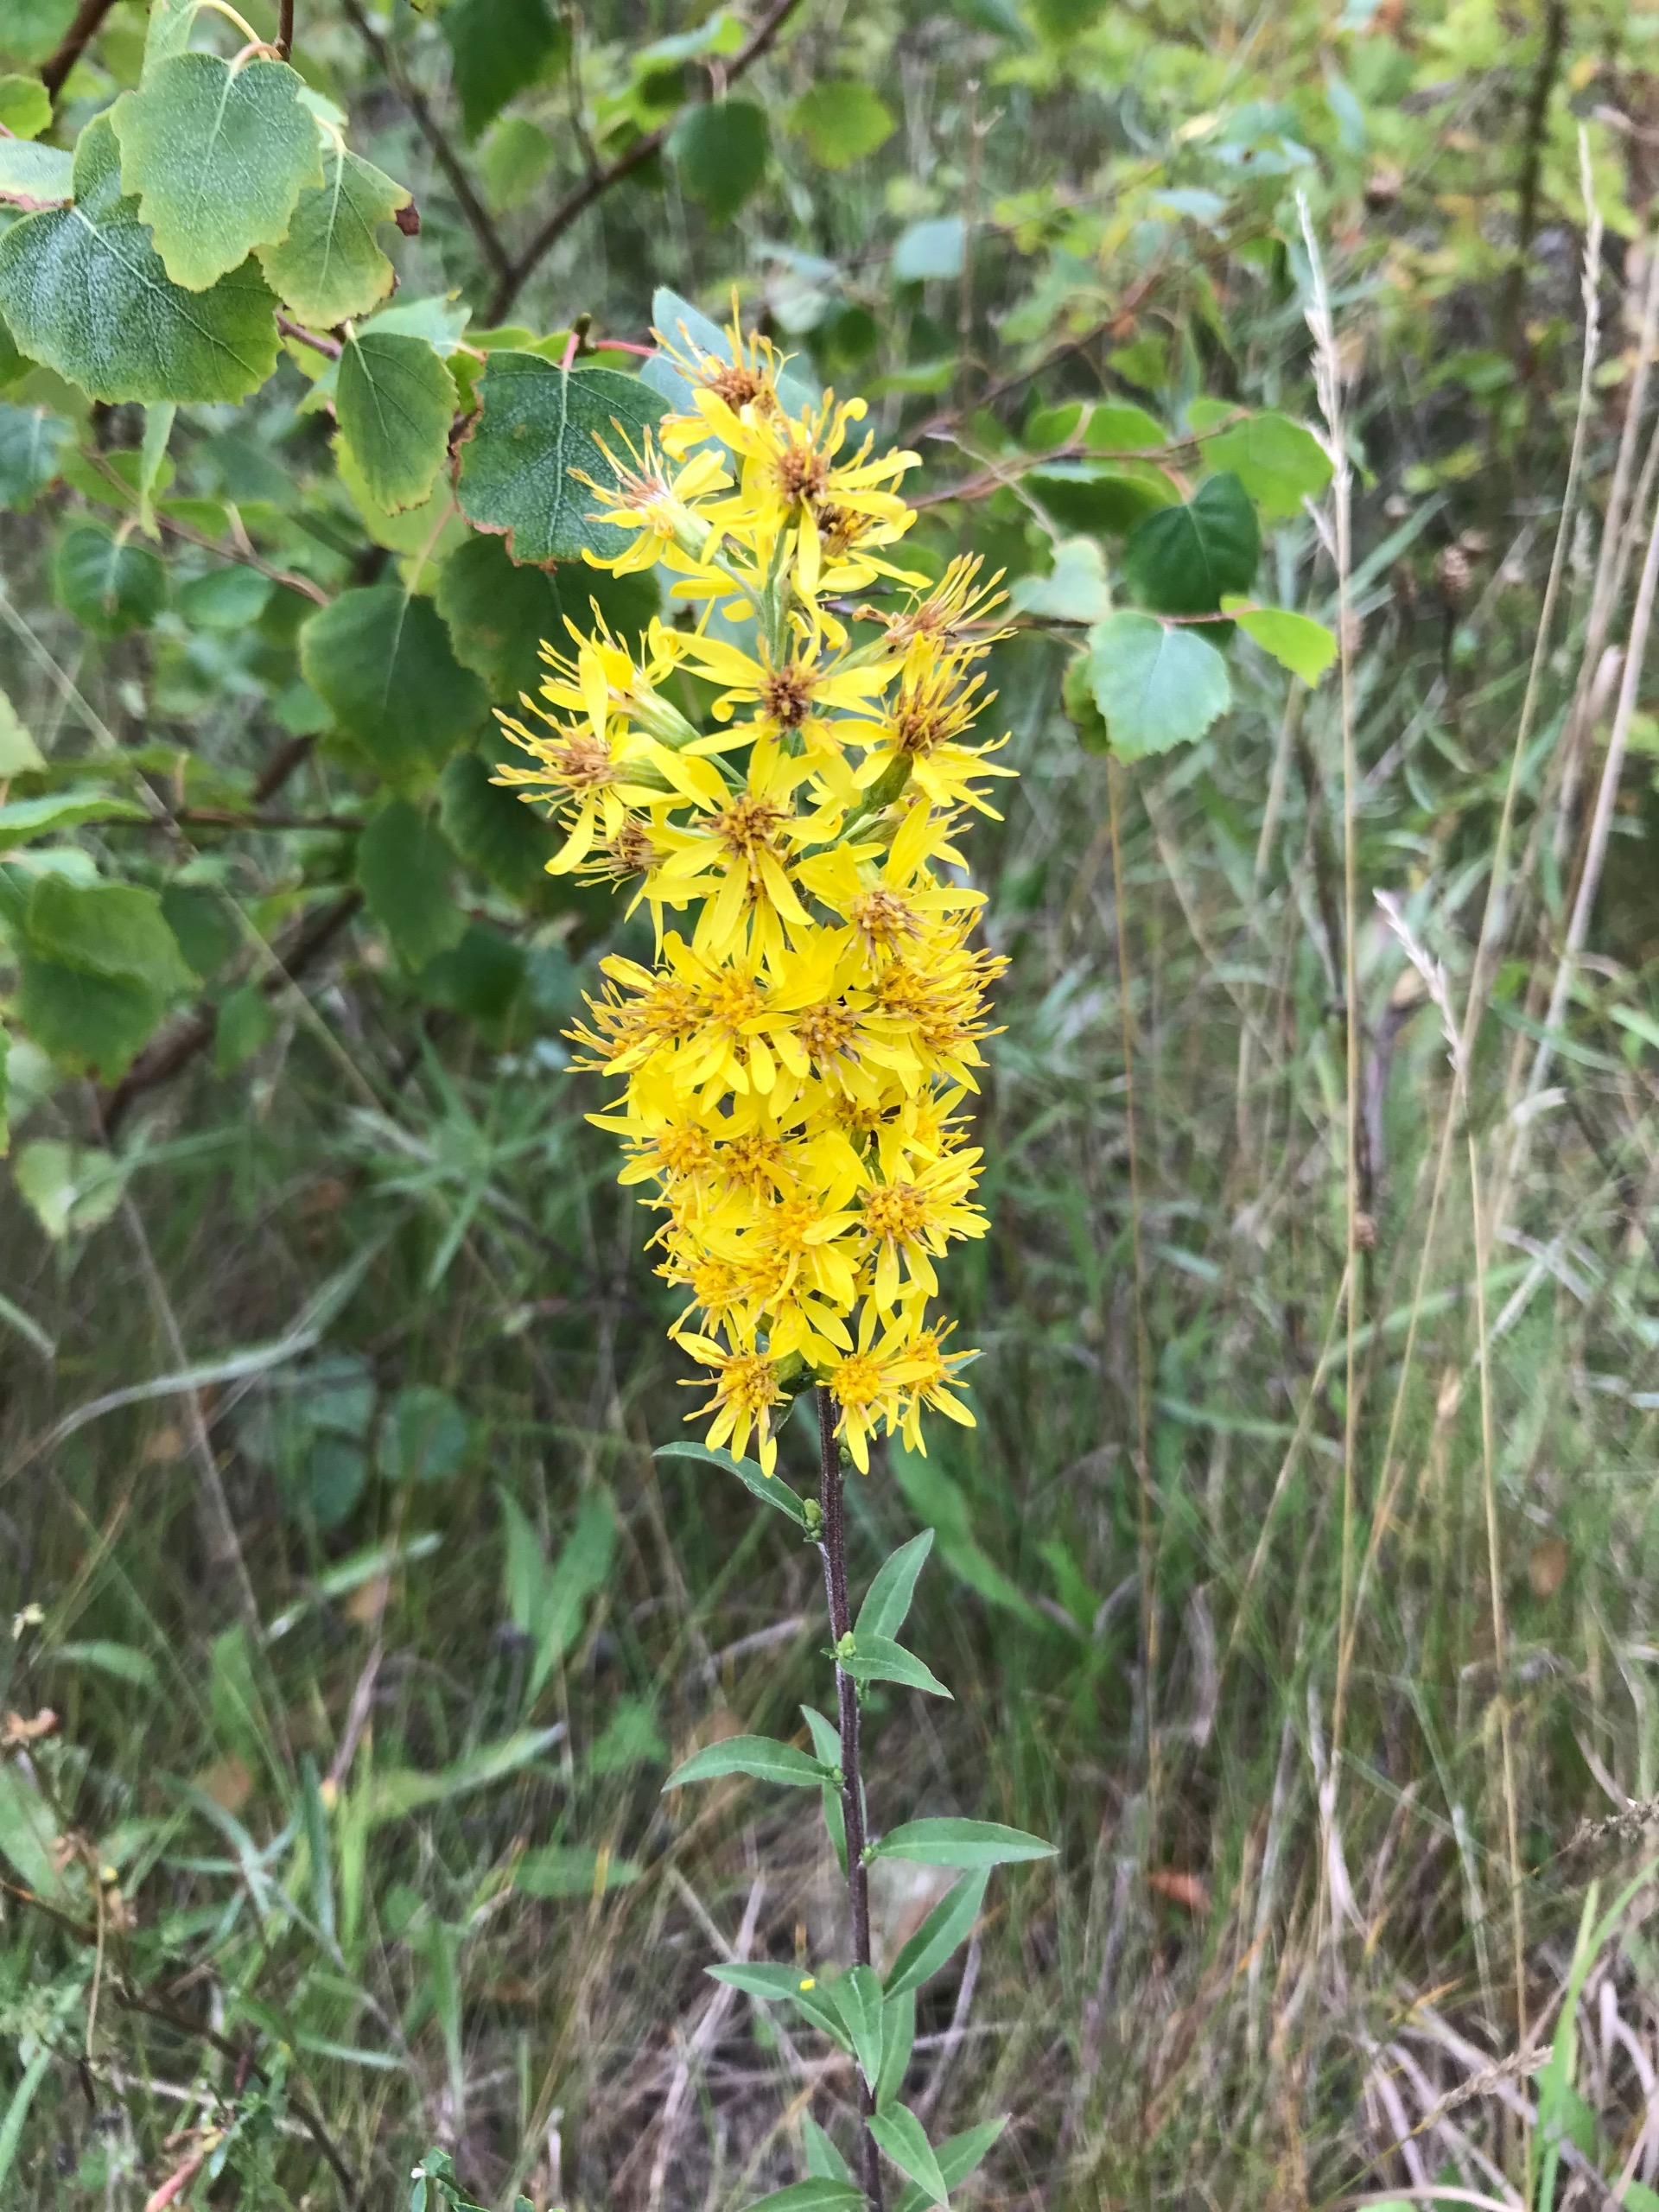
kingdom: Plantae
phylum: Tracheophyta
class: Magnoliopsida
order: Asterales
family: Asteraceae
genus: Solidago
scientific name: Solidago virgaurea
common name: Almindelig gyldenris
